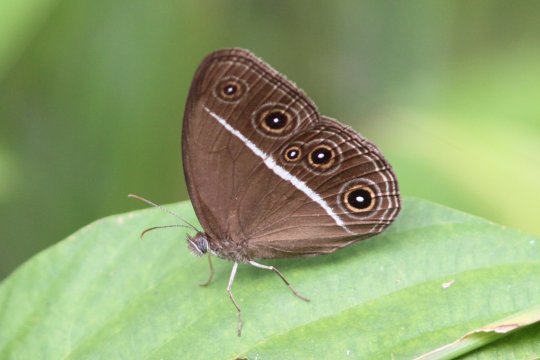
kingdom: Animalia
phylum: Arthropoda
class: Insecta
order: Lepidoptera
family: Nymphalidae
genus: Orsotriaena
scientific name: Orsotriaena medus
